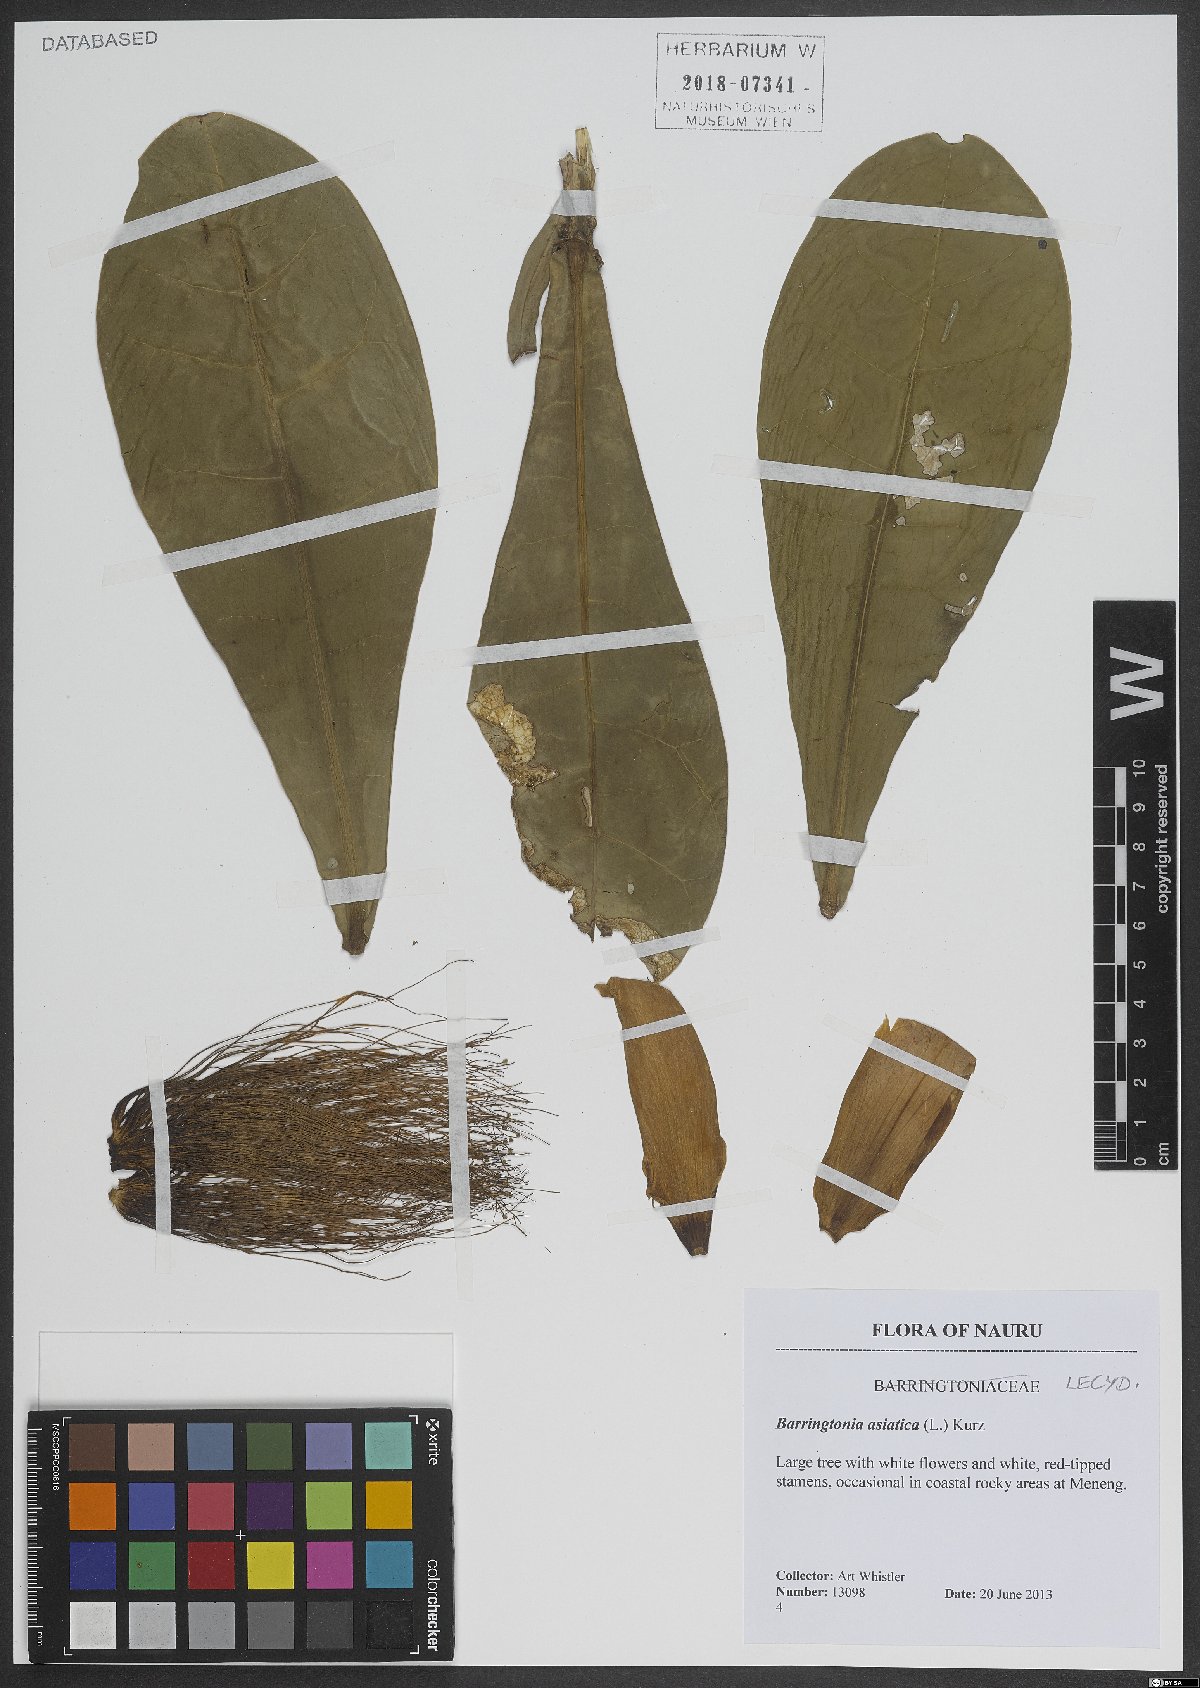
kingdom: Plantae
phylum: Tracheophyta
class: Magnoliopsida
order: Ericales
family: Lecythidaceae
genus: Barringtonia
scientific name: Barringtonia asiatica
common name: Mango-pine
